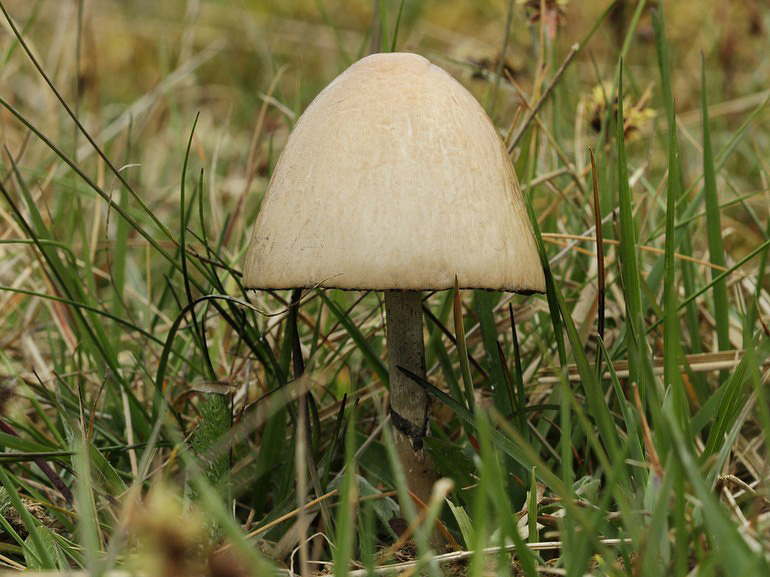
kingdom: Fungi
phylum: Basidiomycota
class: Agaricomycetes
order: Agaricales
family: Bolbitiaceae
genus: Panaeolus
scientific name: Panaeolus semiovatus
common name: ring-glanshat
